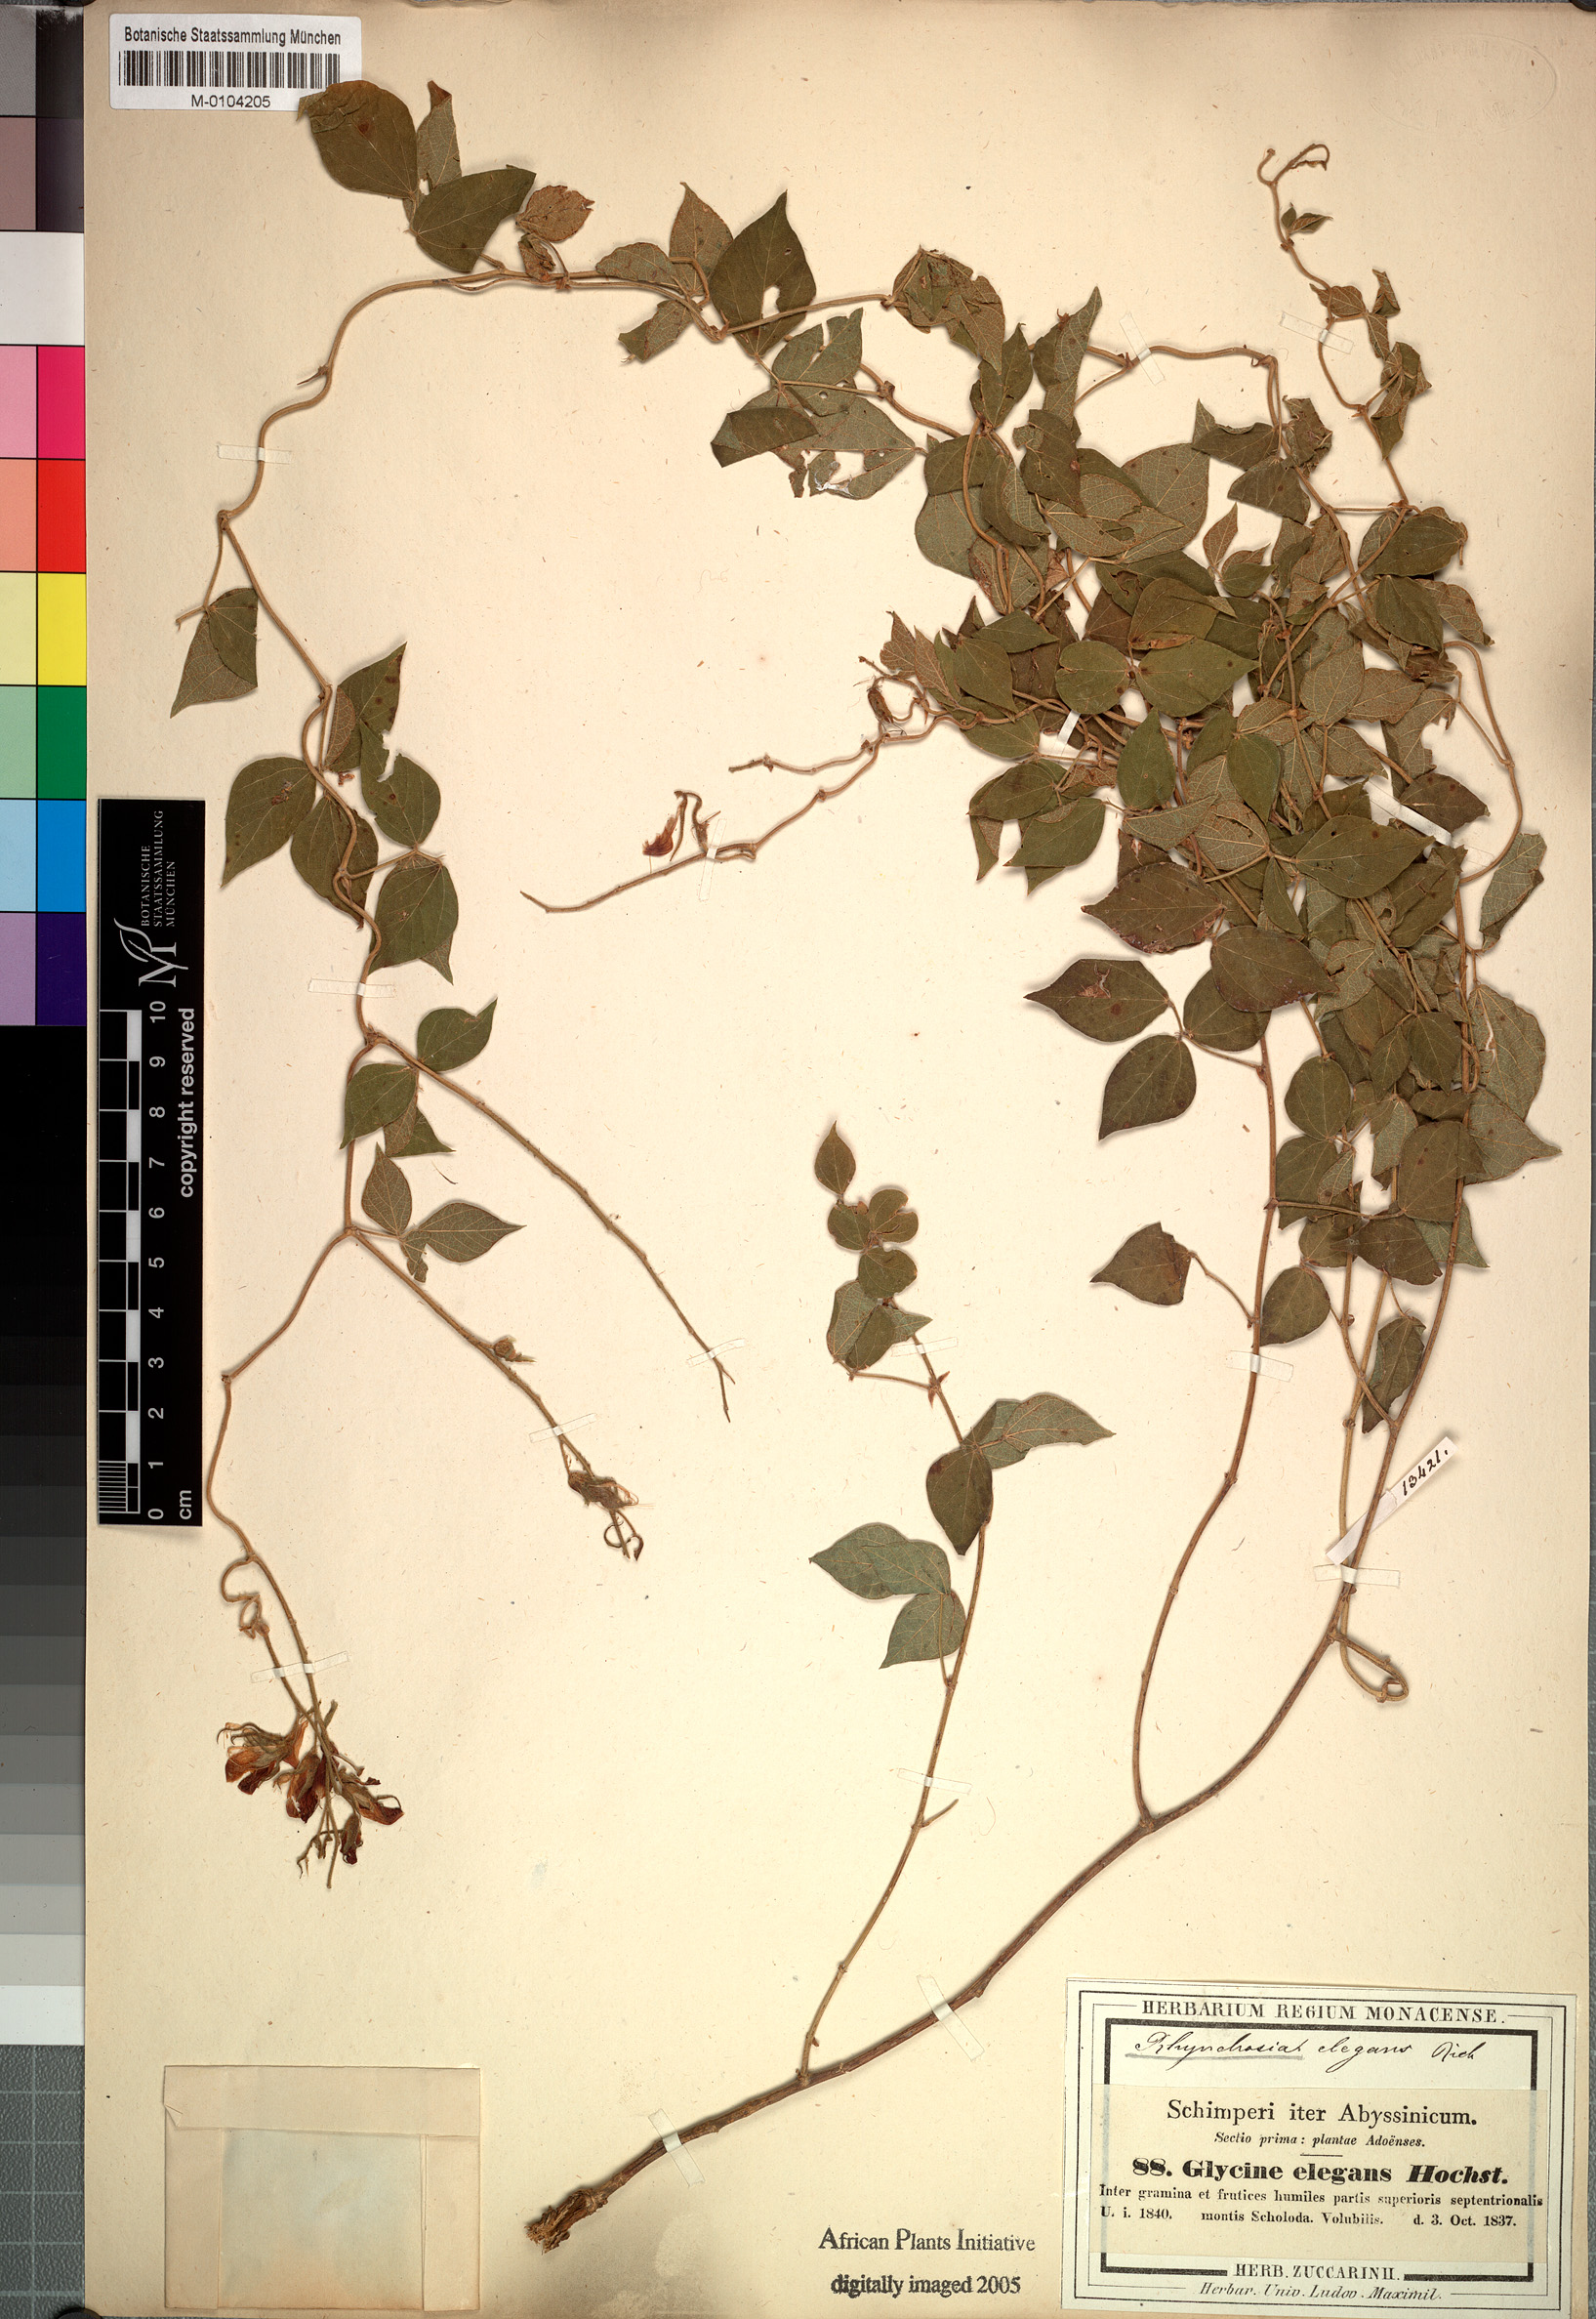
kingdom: Plantae
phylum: Tracheophyta
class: Magnoliopsida
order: Fabales
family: Fabaceae
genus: Rhynchosia
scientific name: Rhynchosia elegans
